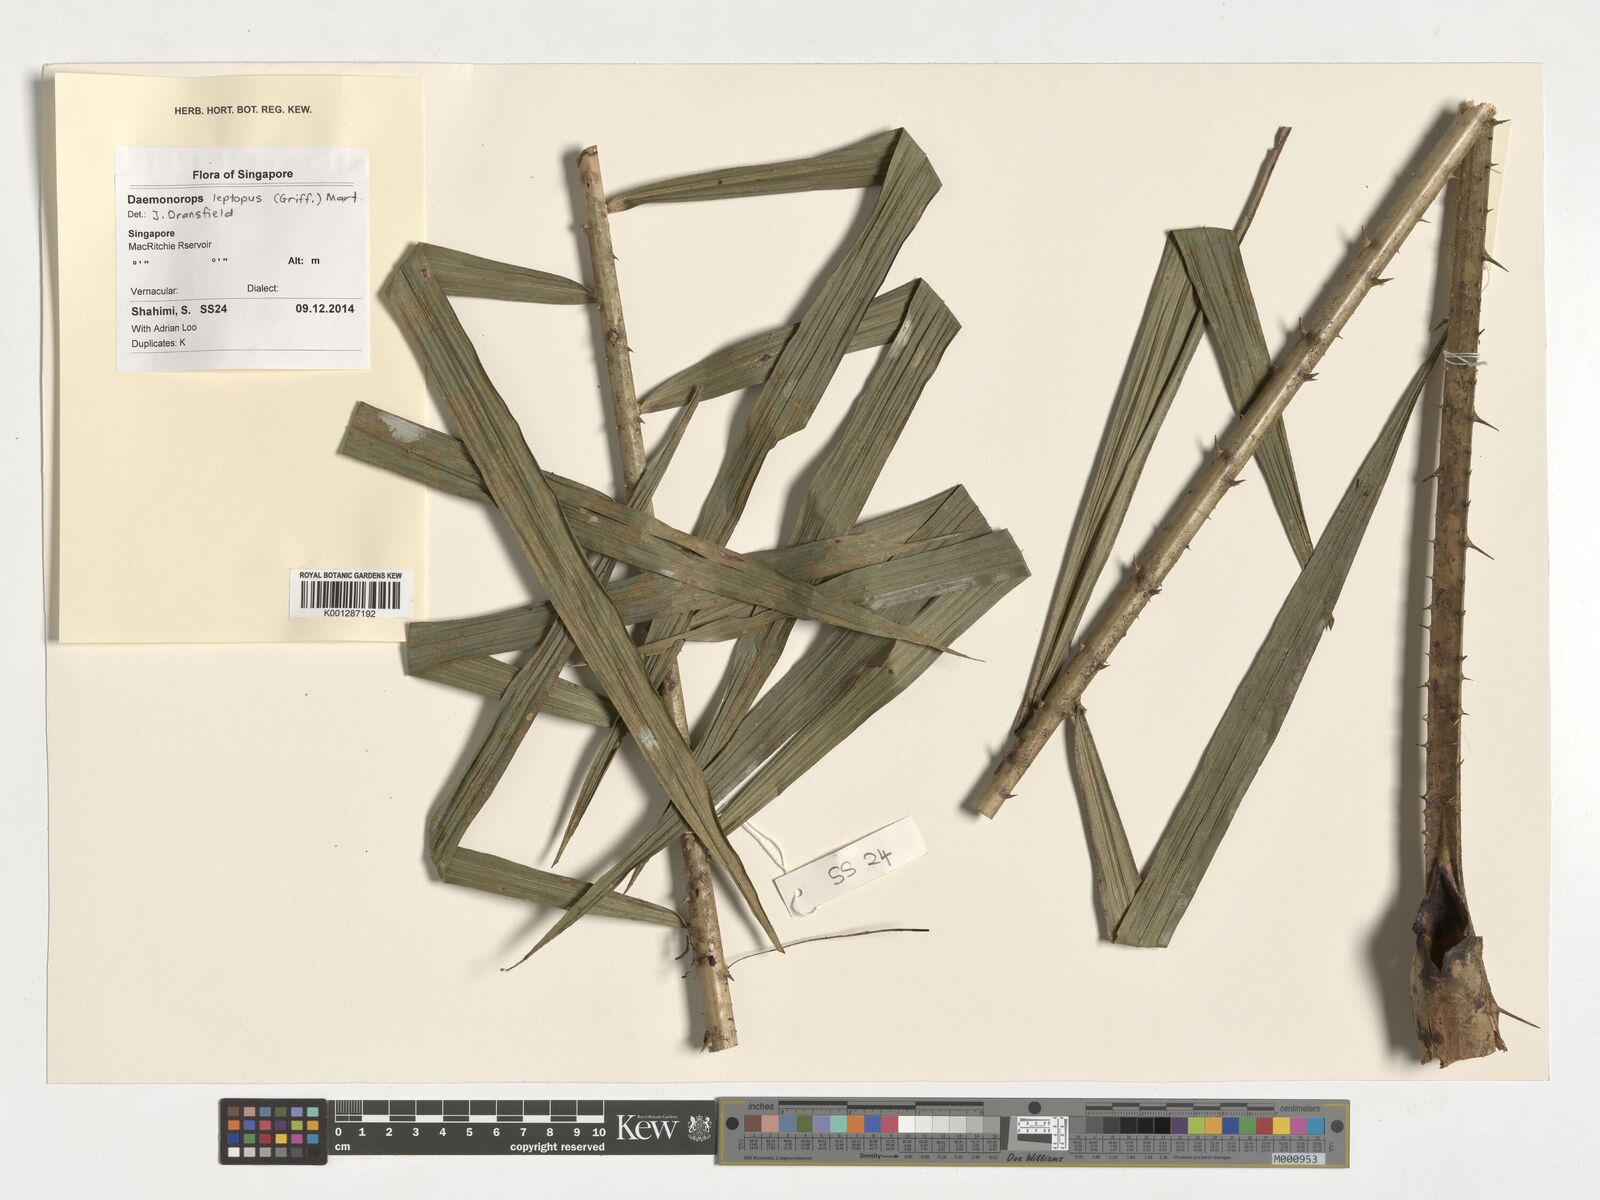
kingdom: Plantae
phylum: Tracheophyta
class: Liliopsida
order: Arecales
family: Arecaceae
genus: Daemonorops
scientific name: Daemonorops
